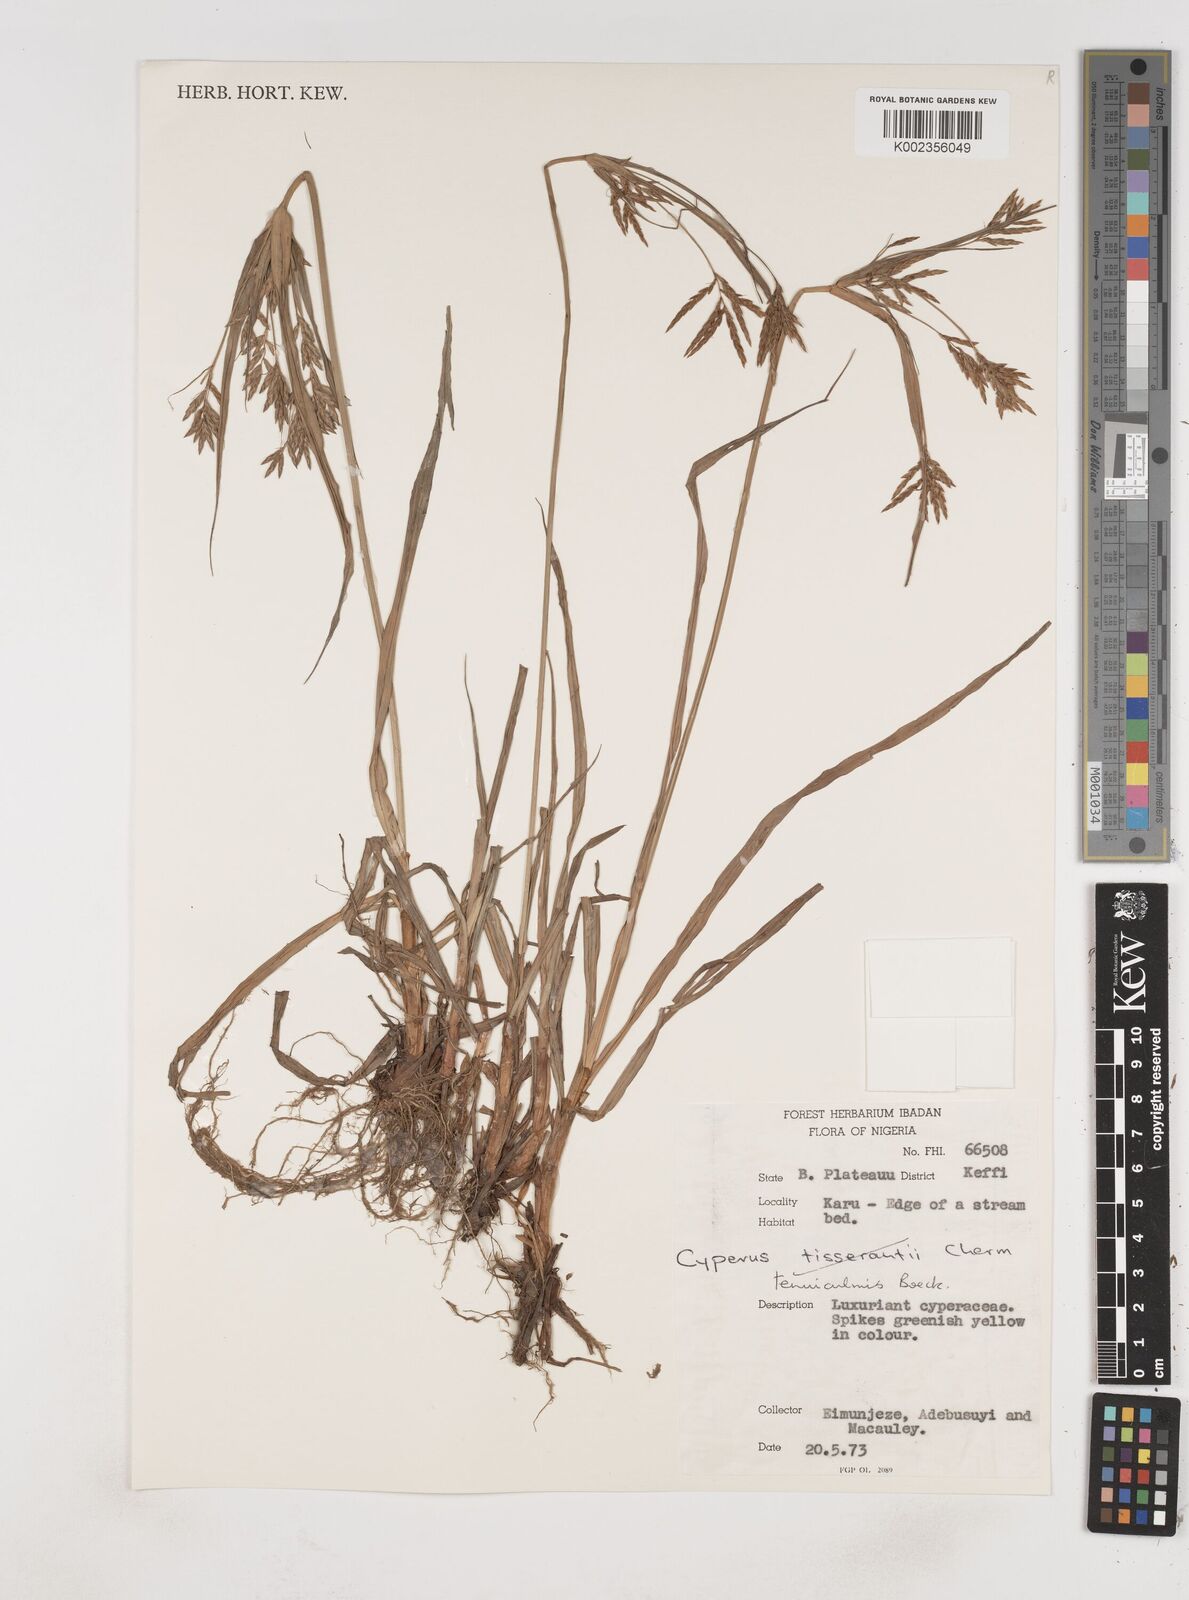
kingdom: Plantae
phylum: Tracheophyta
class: Liliopsida
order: Poales
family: Cyperaceae
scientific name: Cyperaceae
